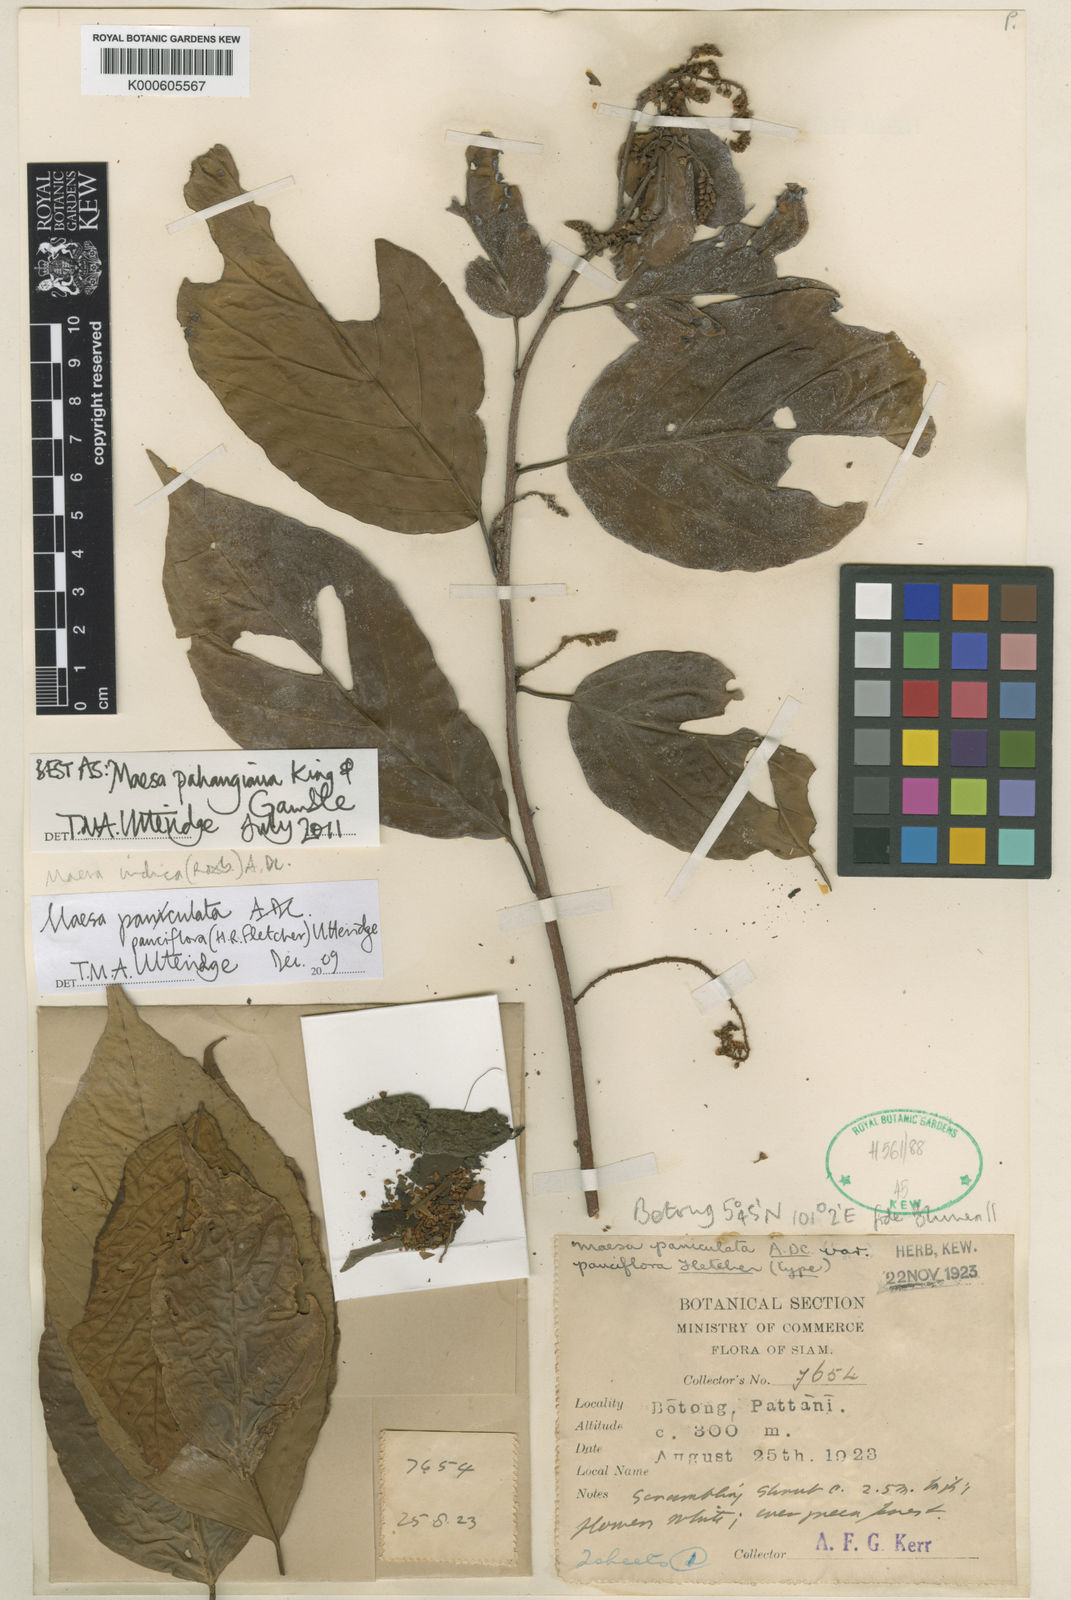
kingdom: Plantae
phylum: Tracheophyta
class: Magnoliopsida
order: Ericales
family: Primulaceae
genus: Maesa
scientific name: Maesa pahangiana
